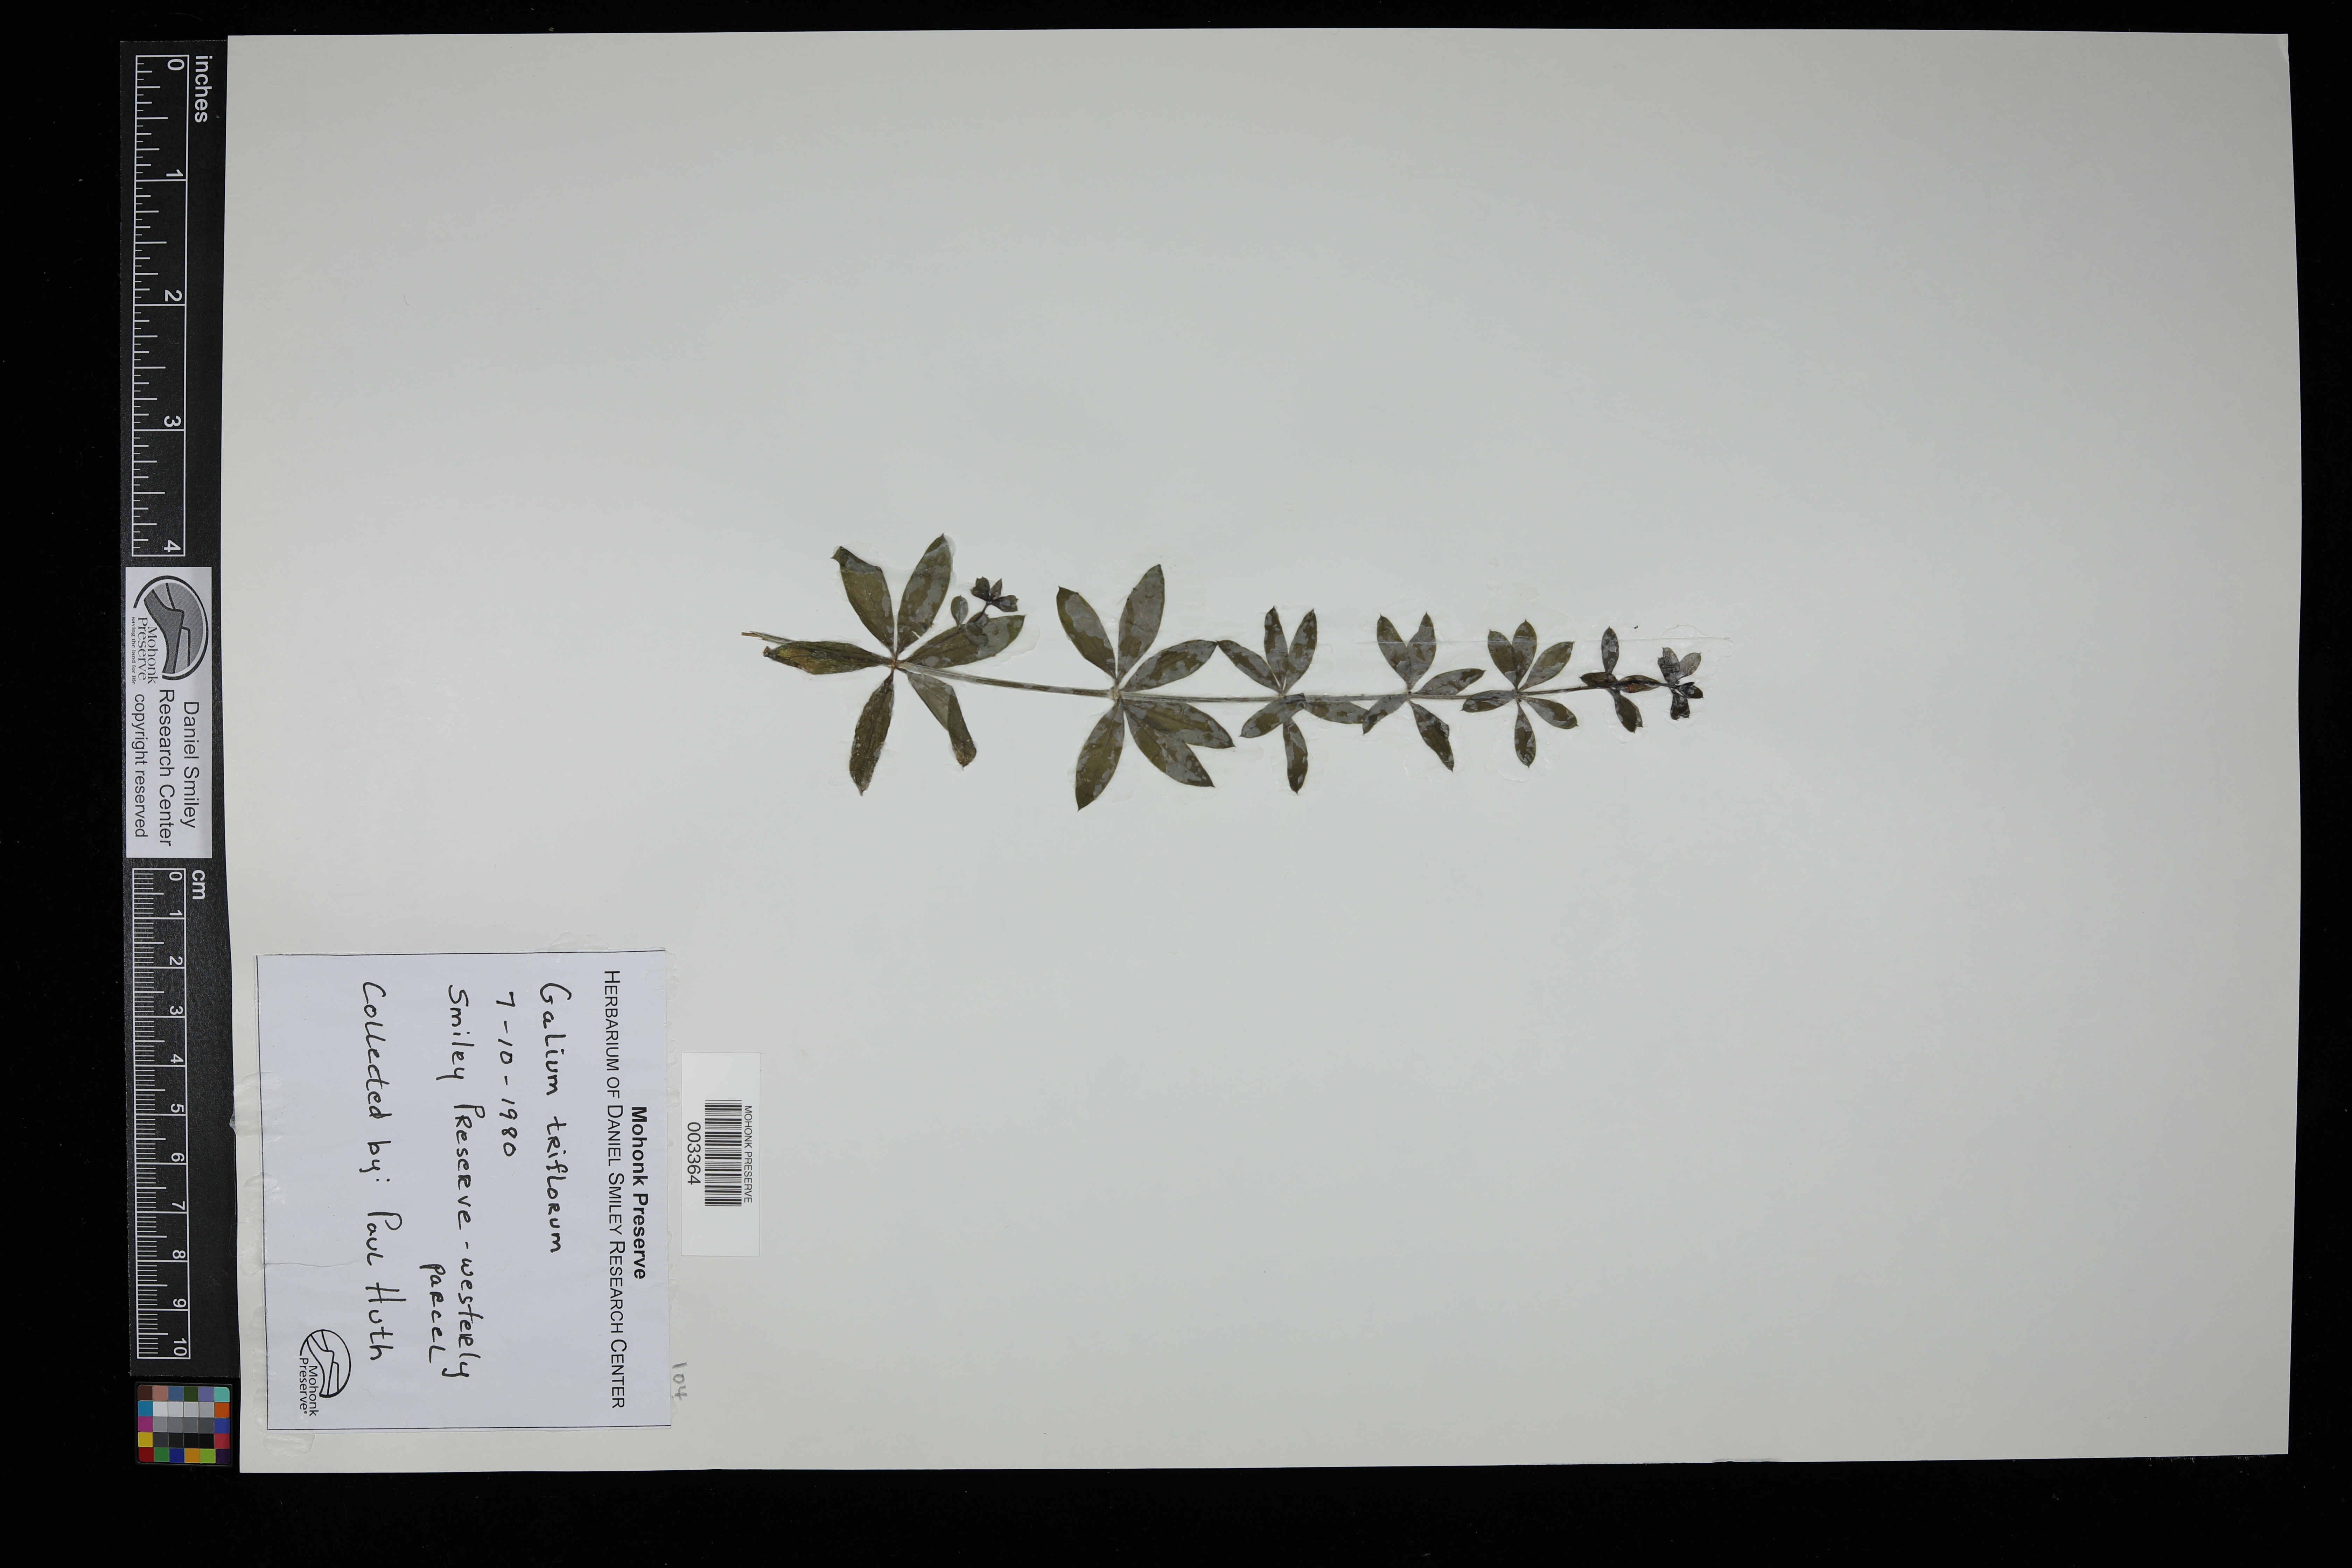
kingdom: Plantae
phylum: Tracheophyta
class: Magnoliopsida
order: Gentianales
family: Rubiaceae
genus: Galium
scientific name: Galium triflorum
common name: Fragrant bedstraw
